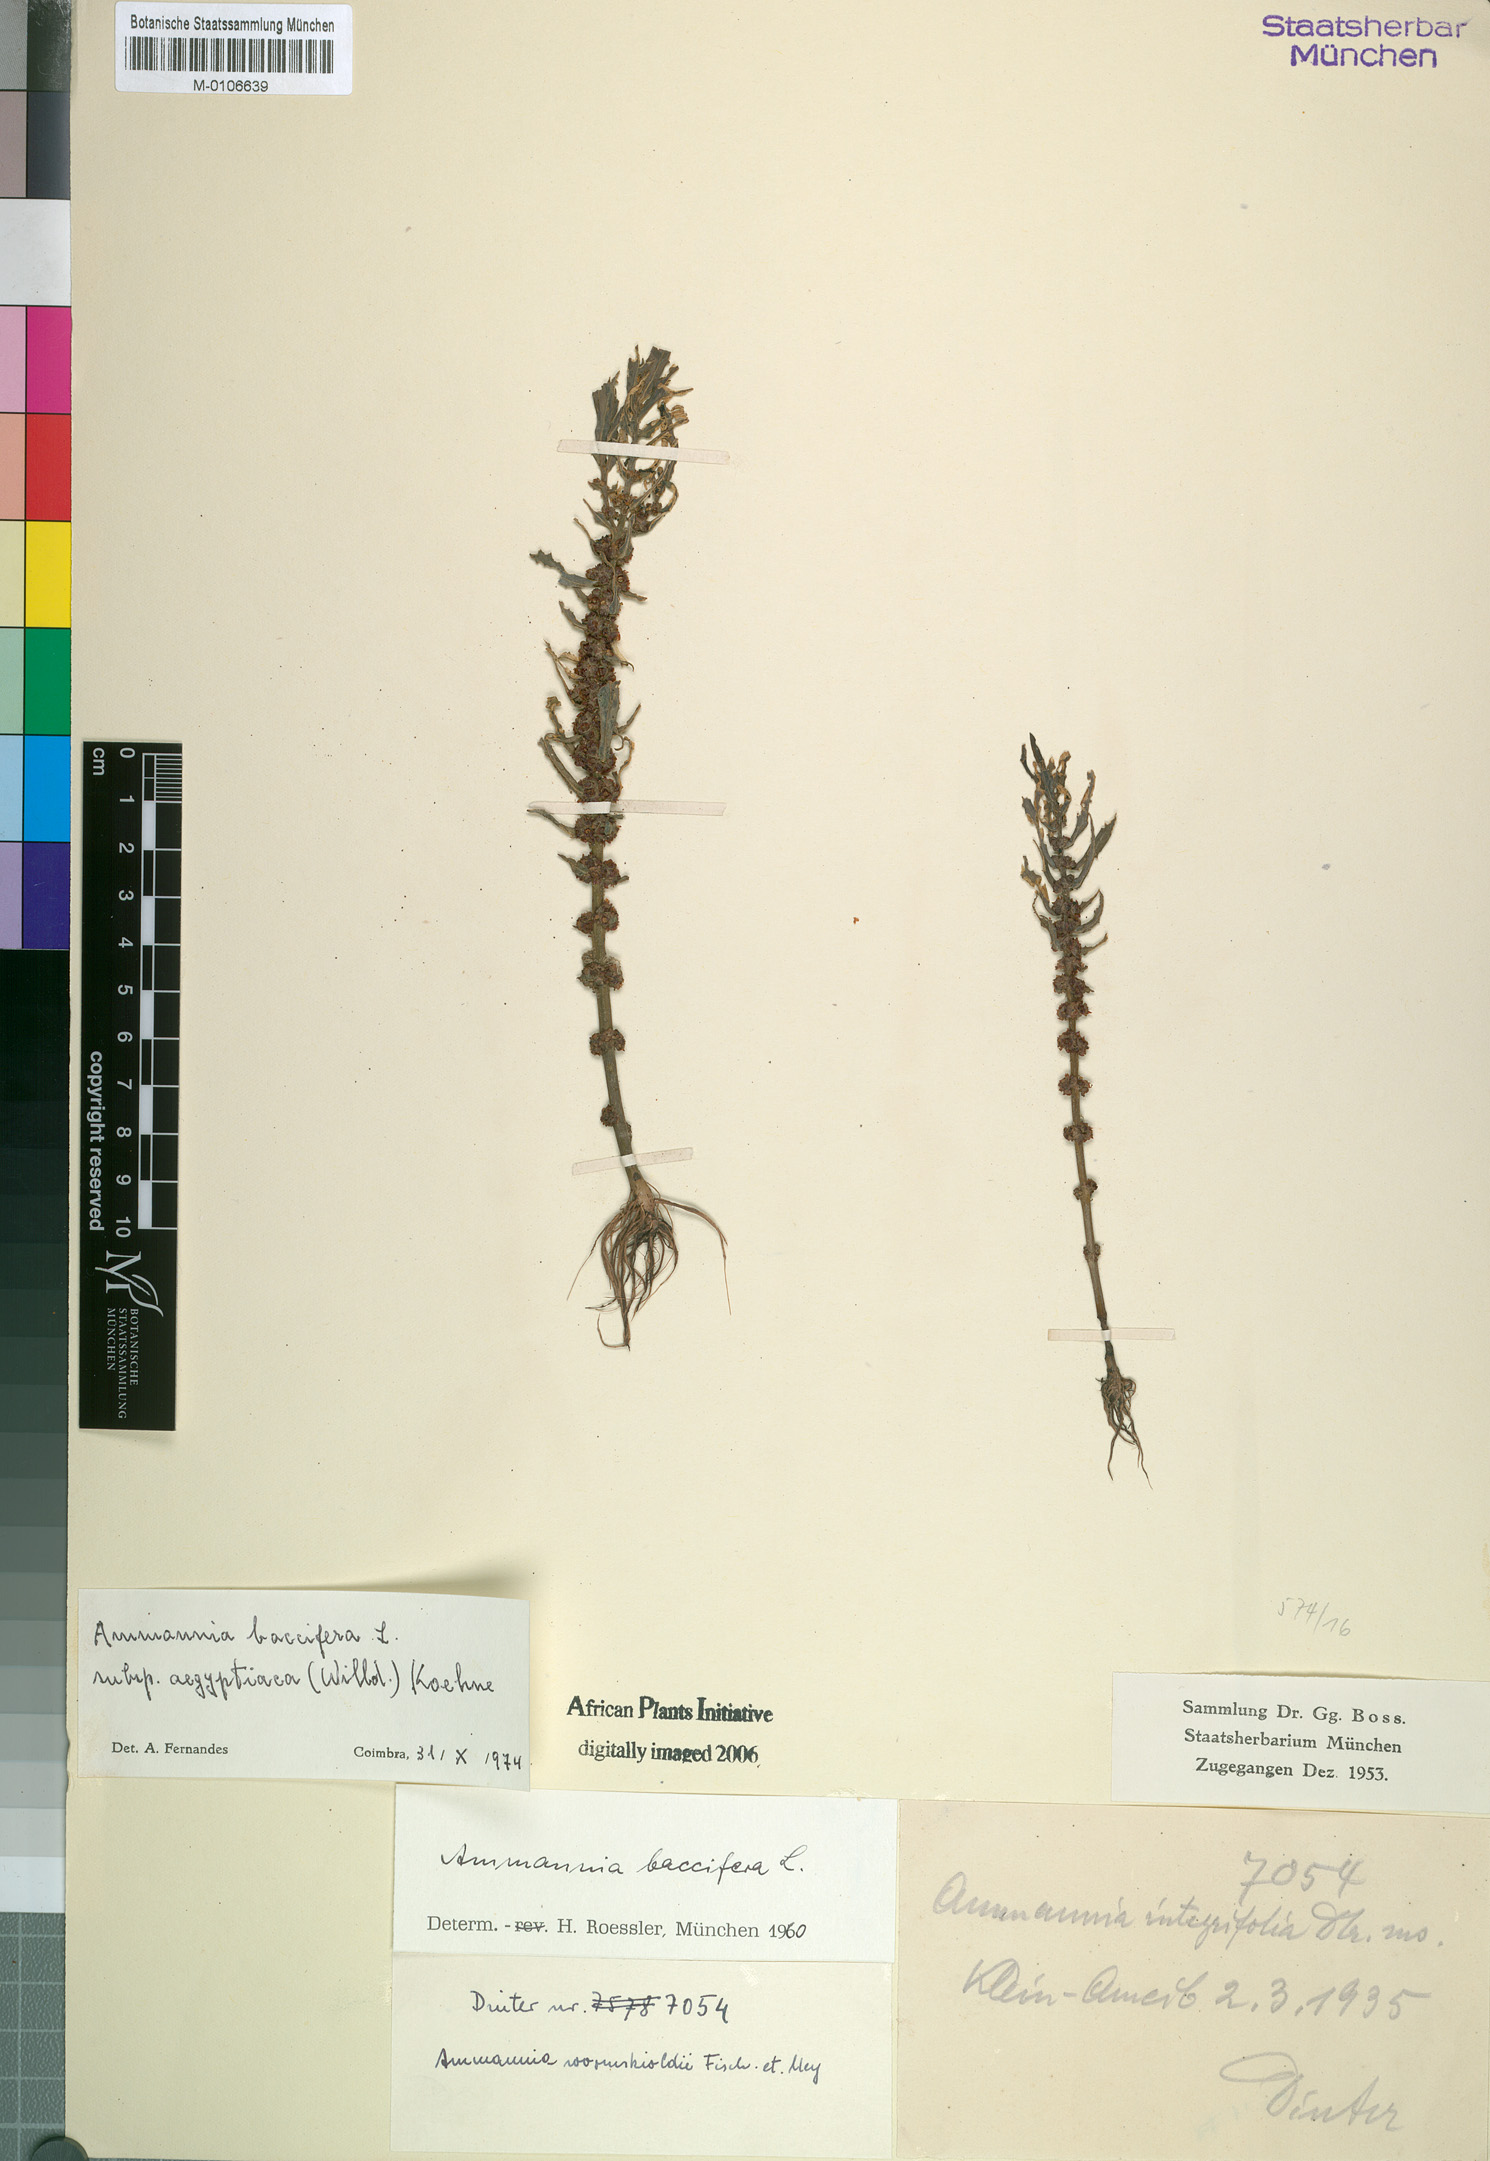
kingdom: Plantae
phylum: Tracheophyta
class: Magnoliopsida
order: Myrtales
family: Lythraceae
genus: Ammannia
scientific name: Ammannia baccifera
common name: Blistering ammania
